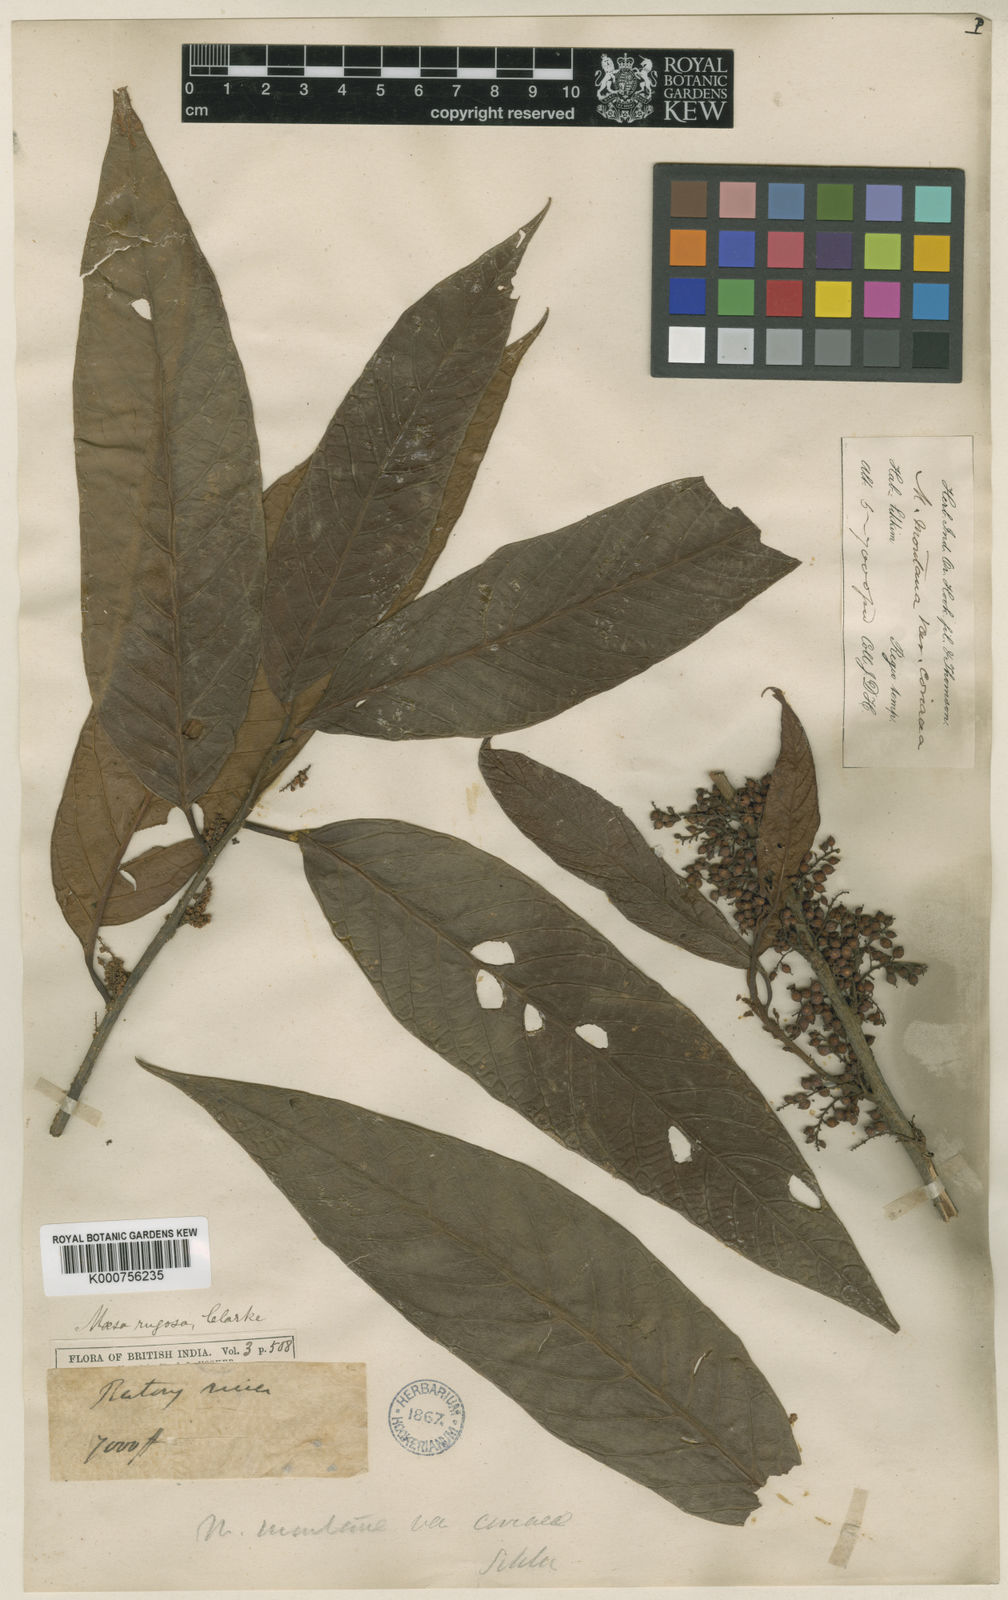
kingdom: Plantae
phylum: Tracheophyta
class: Magnoliopsida
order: Ericales
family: Primulaceae
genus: Maesa
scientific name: Maesa rugosa
